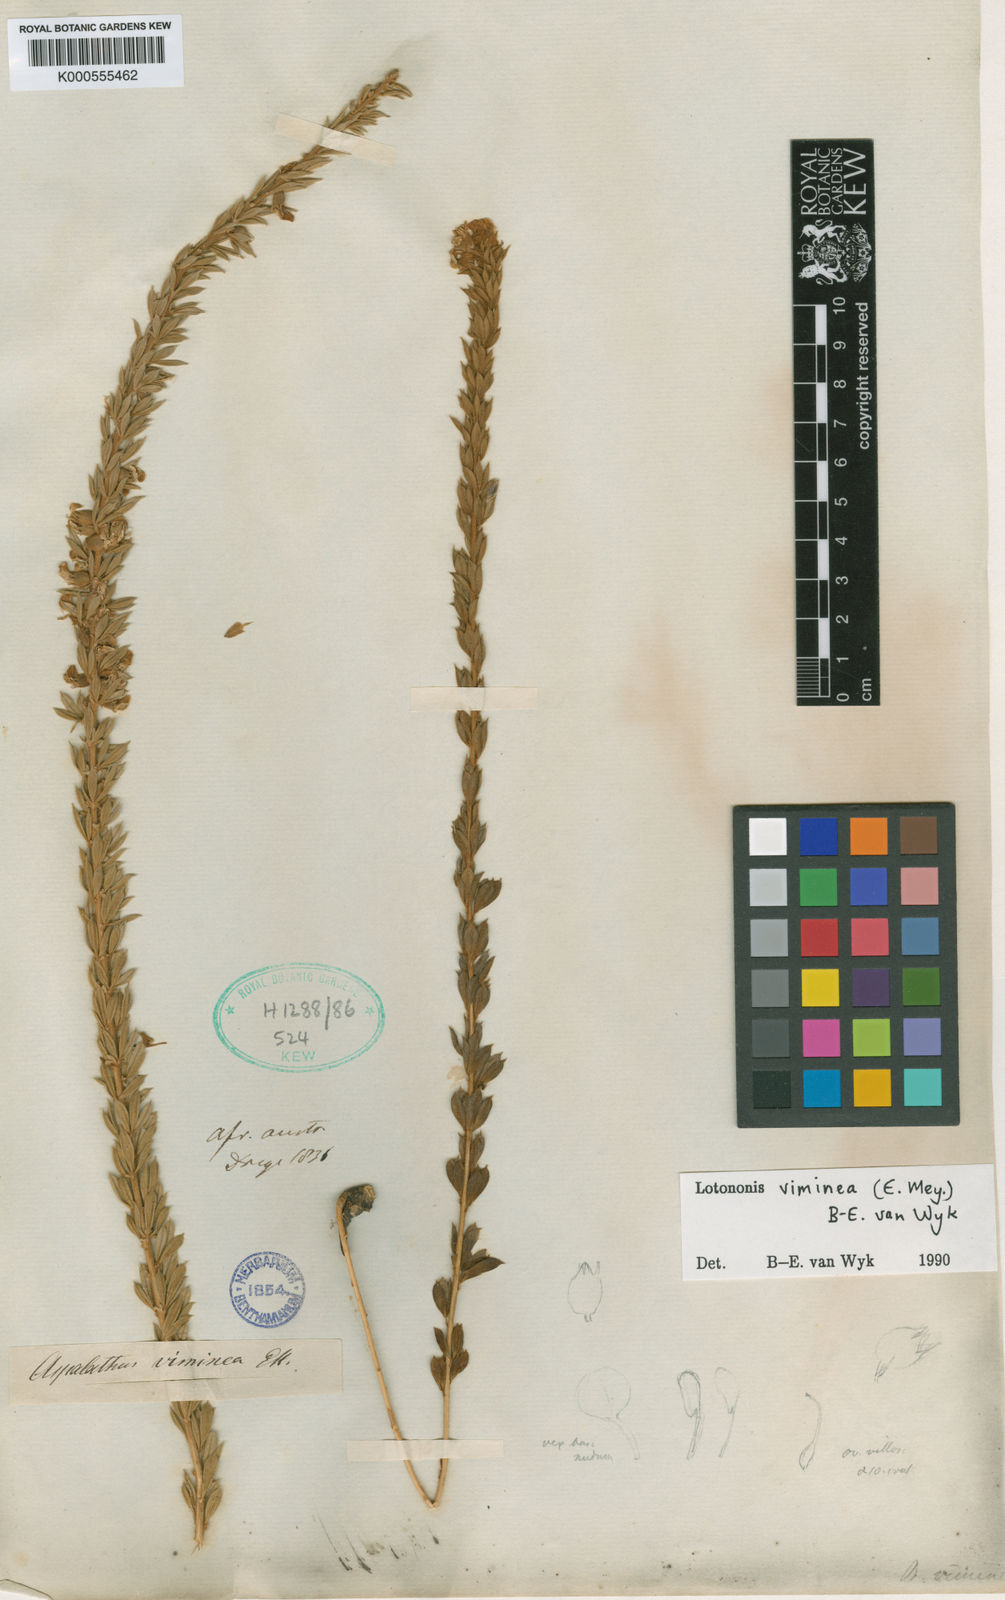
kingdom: Plantae
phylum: Tracheophyta
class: Magnoliopsida
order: Fabales
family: Fabaceae
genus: Lotononis
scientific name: Lotononis viminea
